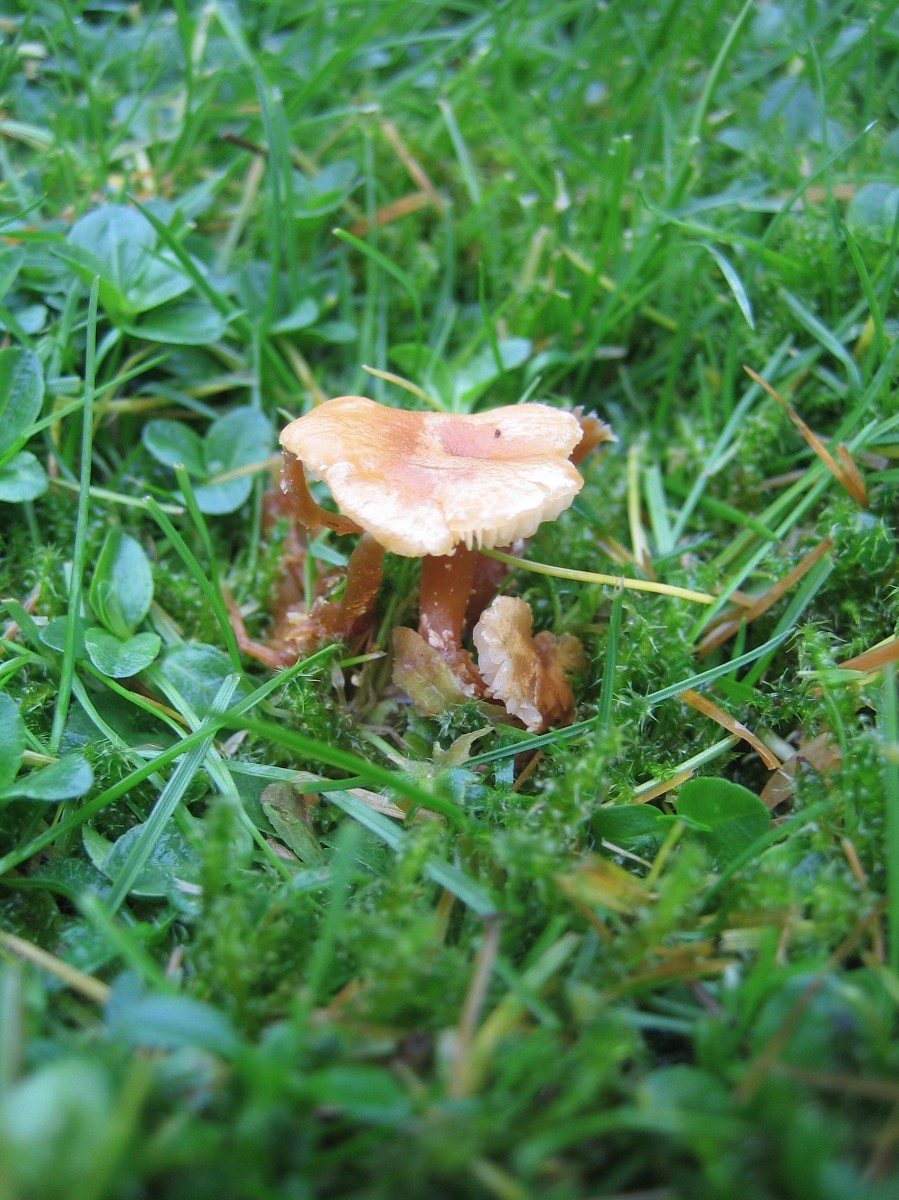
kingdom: Fungi
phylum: Basidiomycota
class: Agaricomycetes
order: Agaricales
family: Tricholomataceae
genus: Cystoderma
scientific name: Cystoderma amianthinum
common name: okkergul grynhat
